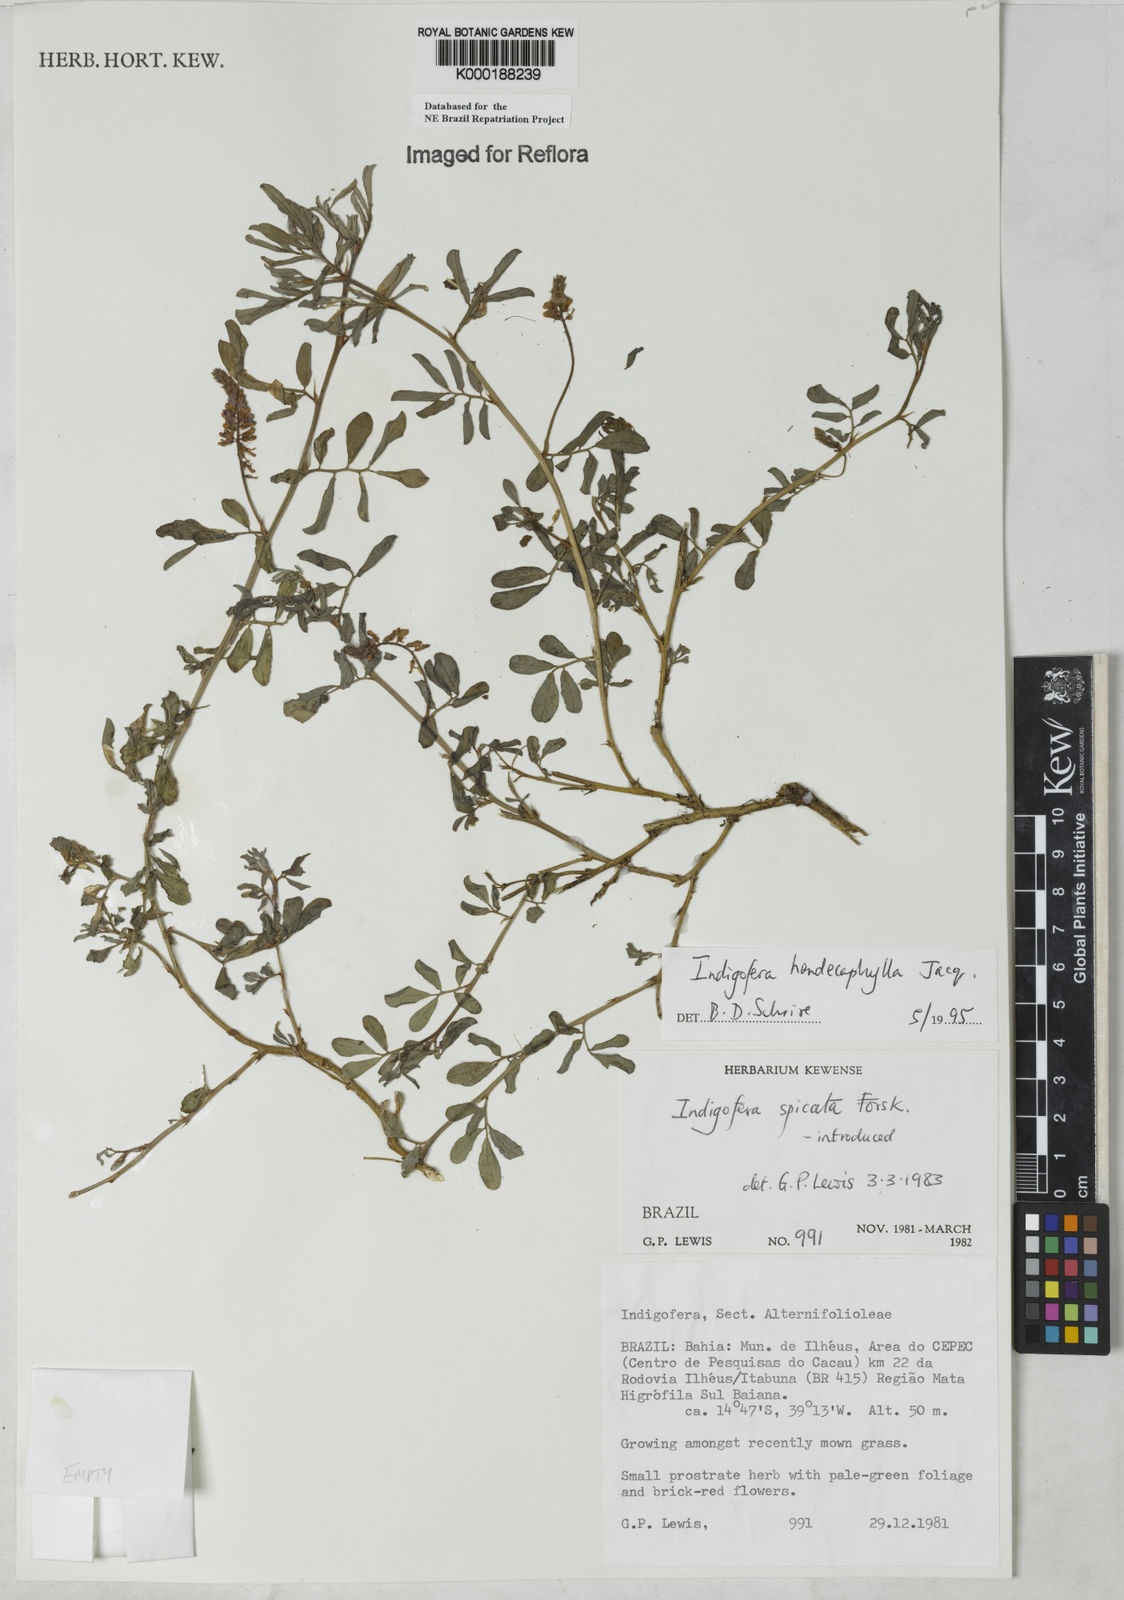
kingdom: Plantae
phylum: Tracheophyta
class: Magnoliopsida
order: Fabales
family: Fabaceae
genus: Indigofera
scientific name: Indigofera hendecaphylla
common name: Trailing indigo
